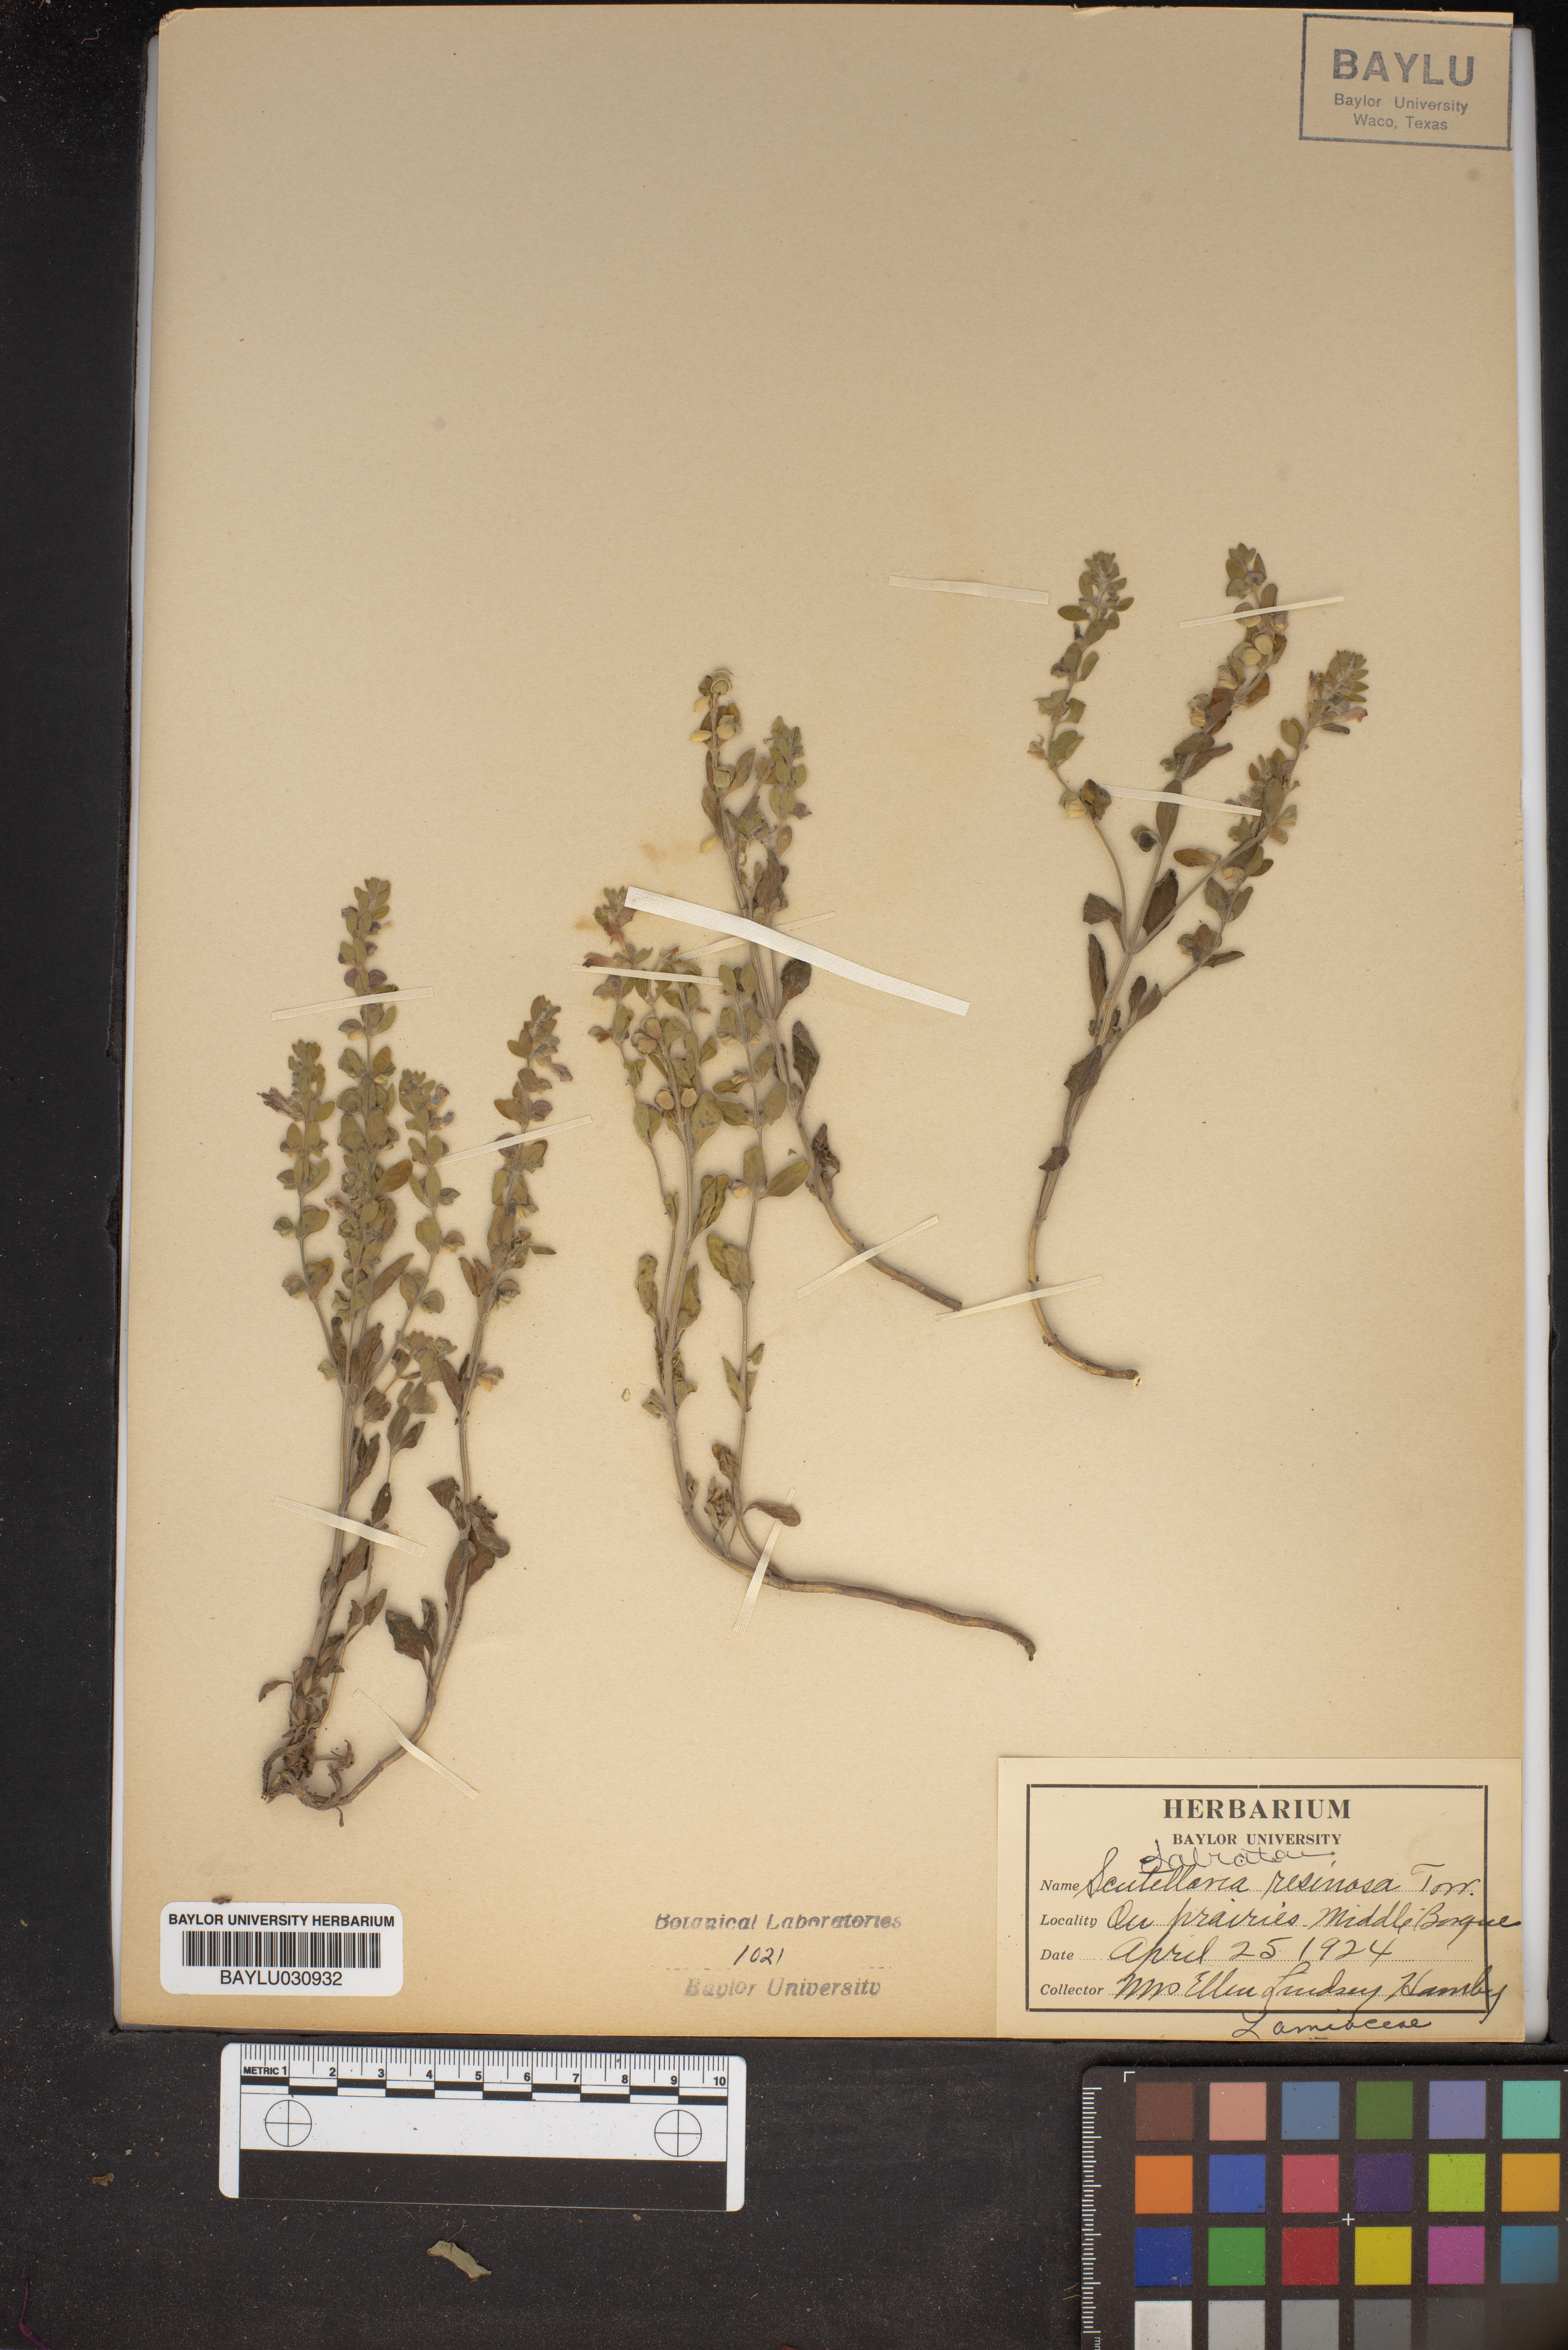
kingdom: Plantae
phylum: Tracheophyta
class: Magnoliopsida
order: Lamiales
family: Lamiaceae
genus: Scutellaria
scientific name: Scutellaria resinosa
